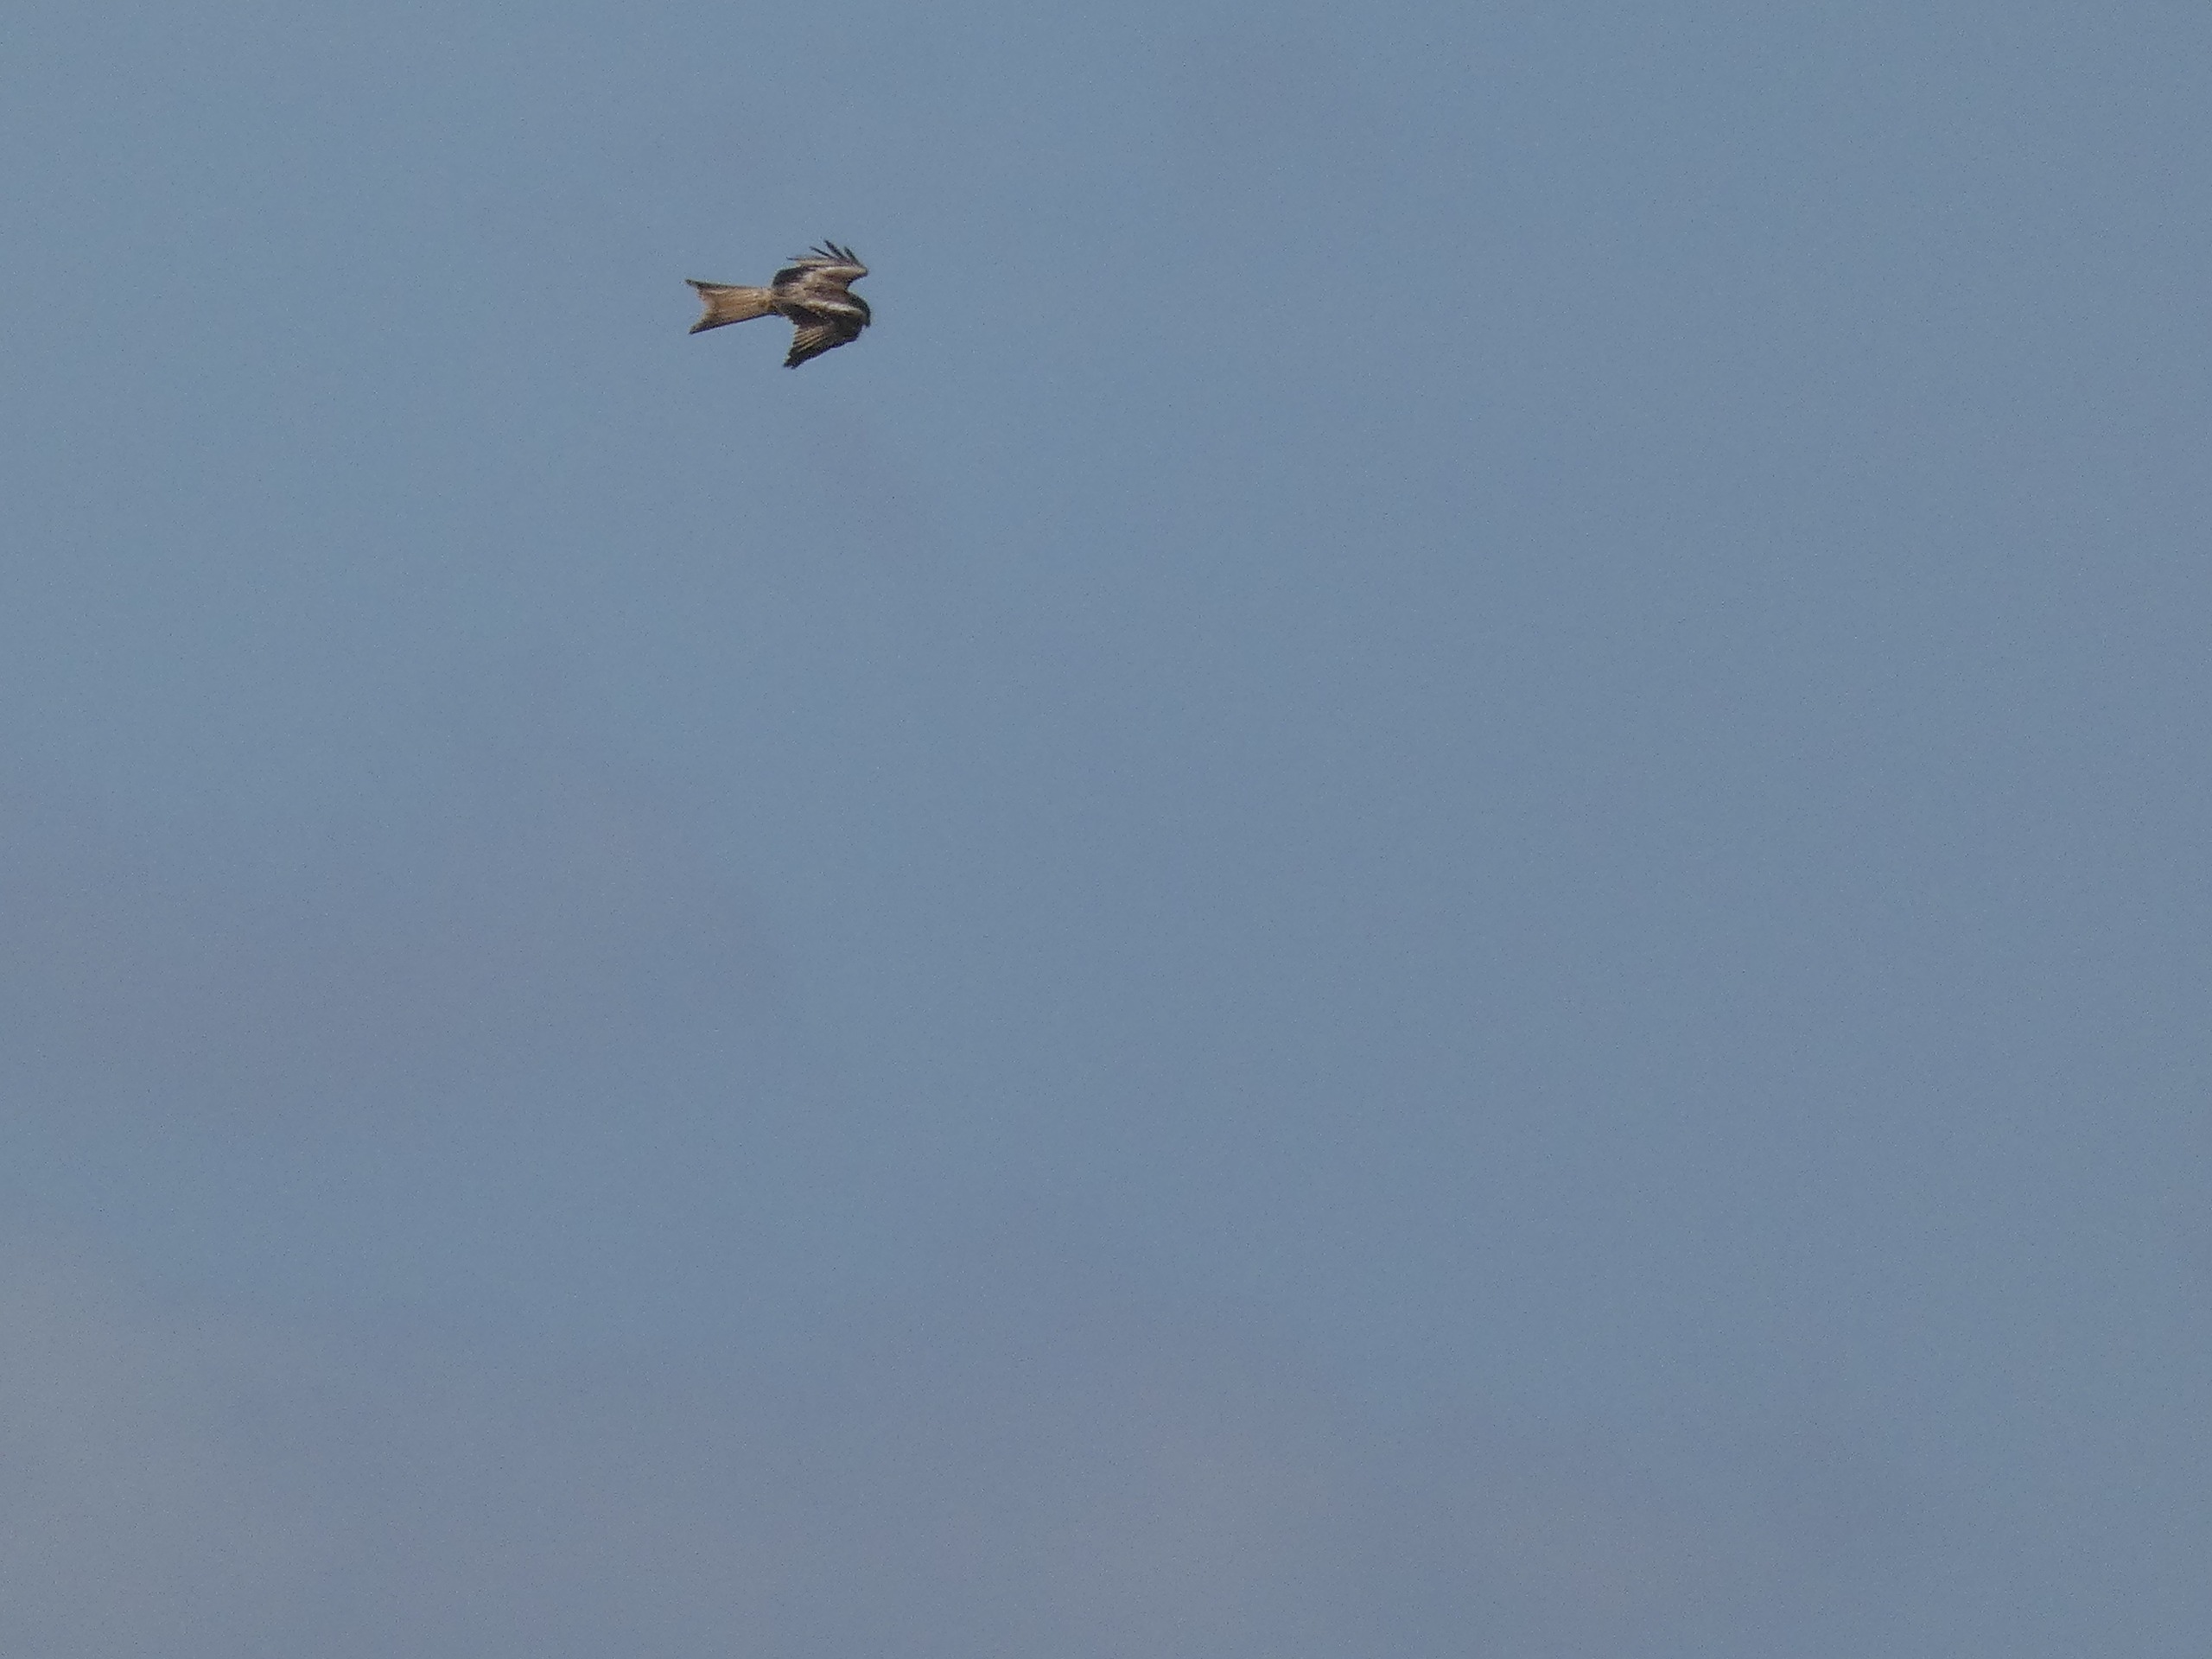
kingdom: Animalia
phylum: Chordata
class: Aves
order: Accipitriformes
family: Accipitridae
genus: Milvus
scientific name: Milvus milvus
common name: Rød glente
